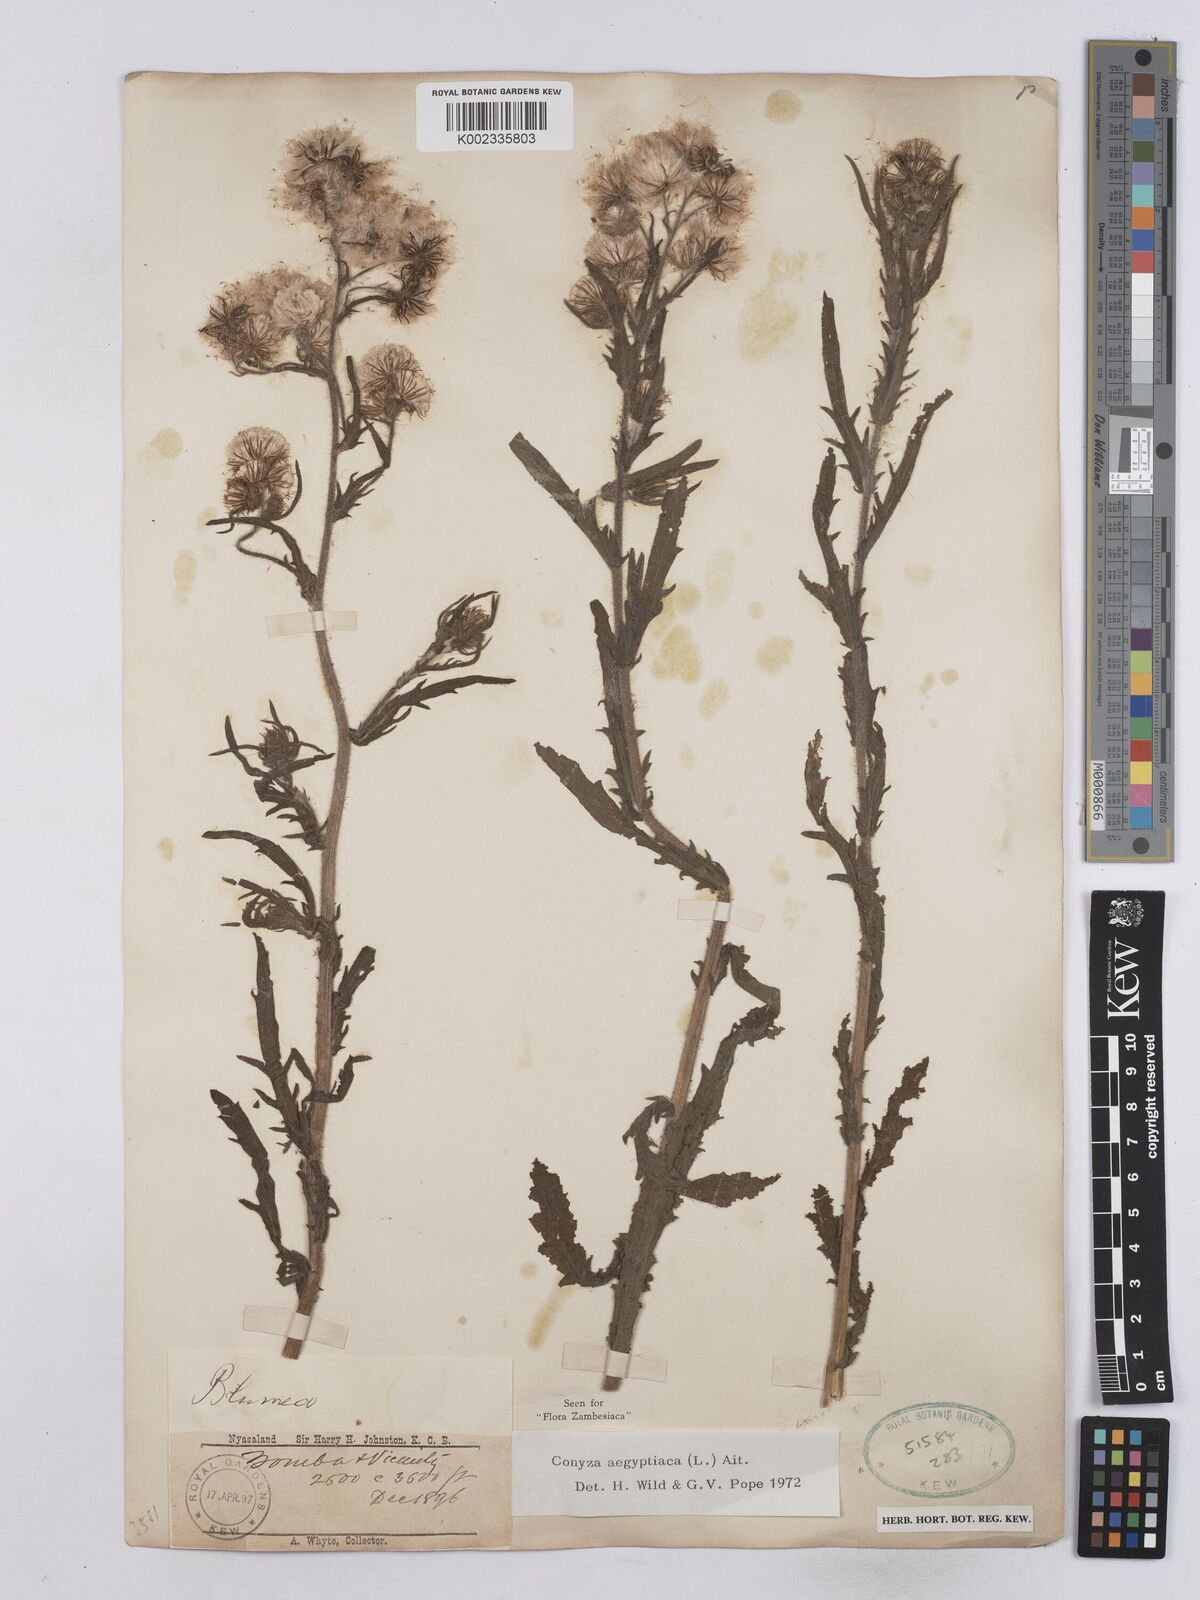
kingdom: Plantae
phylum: Tracheophyta
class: Magnoliopsida
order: Asterales
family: Asteraceae
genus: Nidorella
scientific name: Nidorella aegyptiaca
